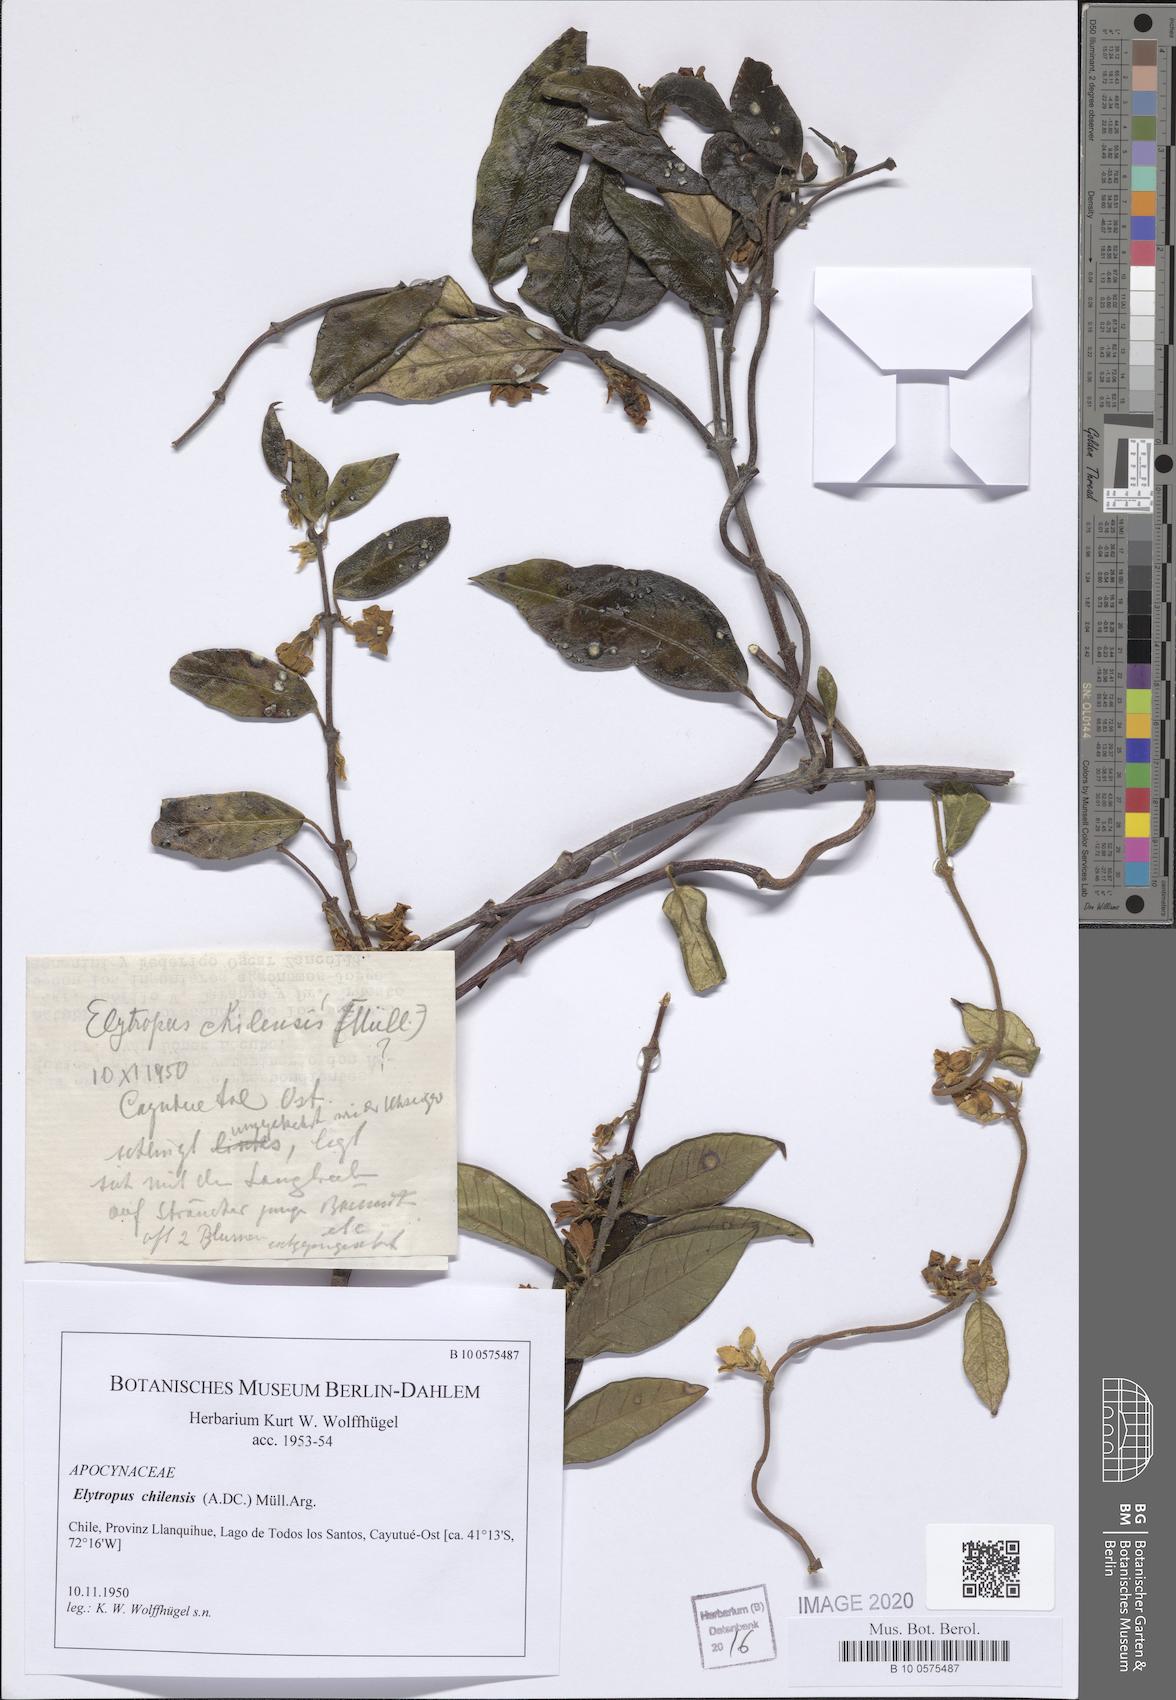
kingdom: Plantae
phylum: Tracheophyta
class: Magnoliopsida
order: Gentianales
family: Apocynaceae
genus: Mandevilla
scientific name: Mandevilla pubescens
